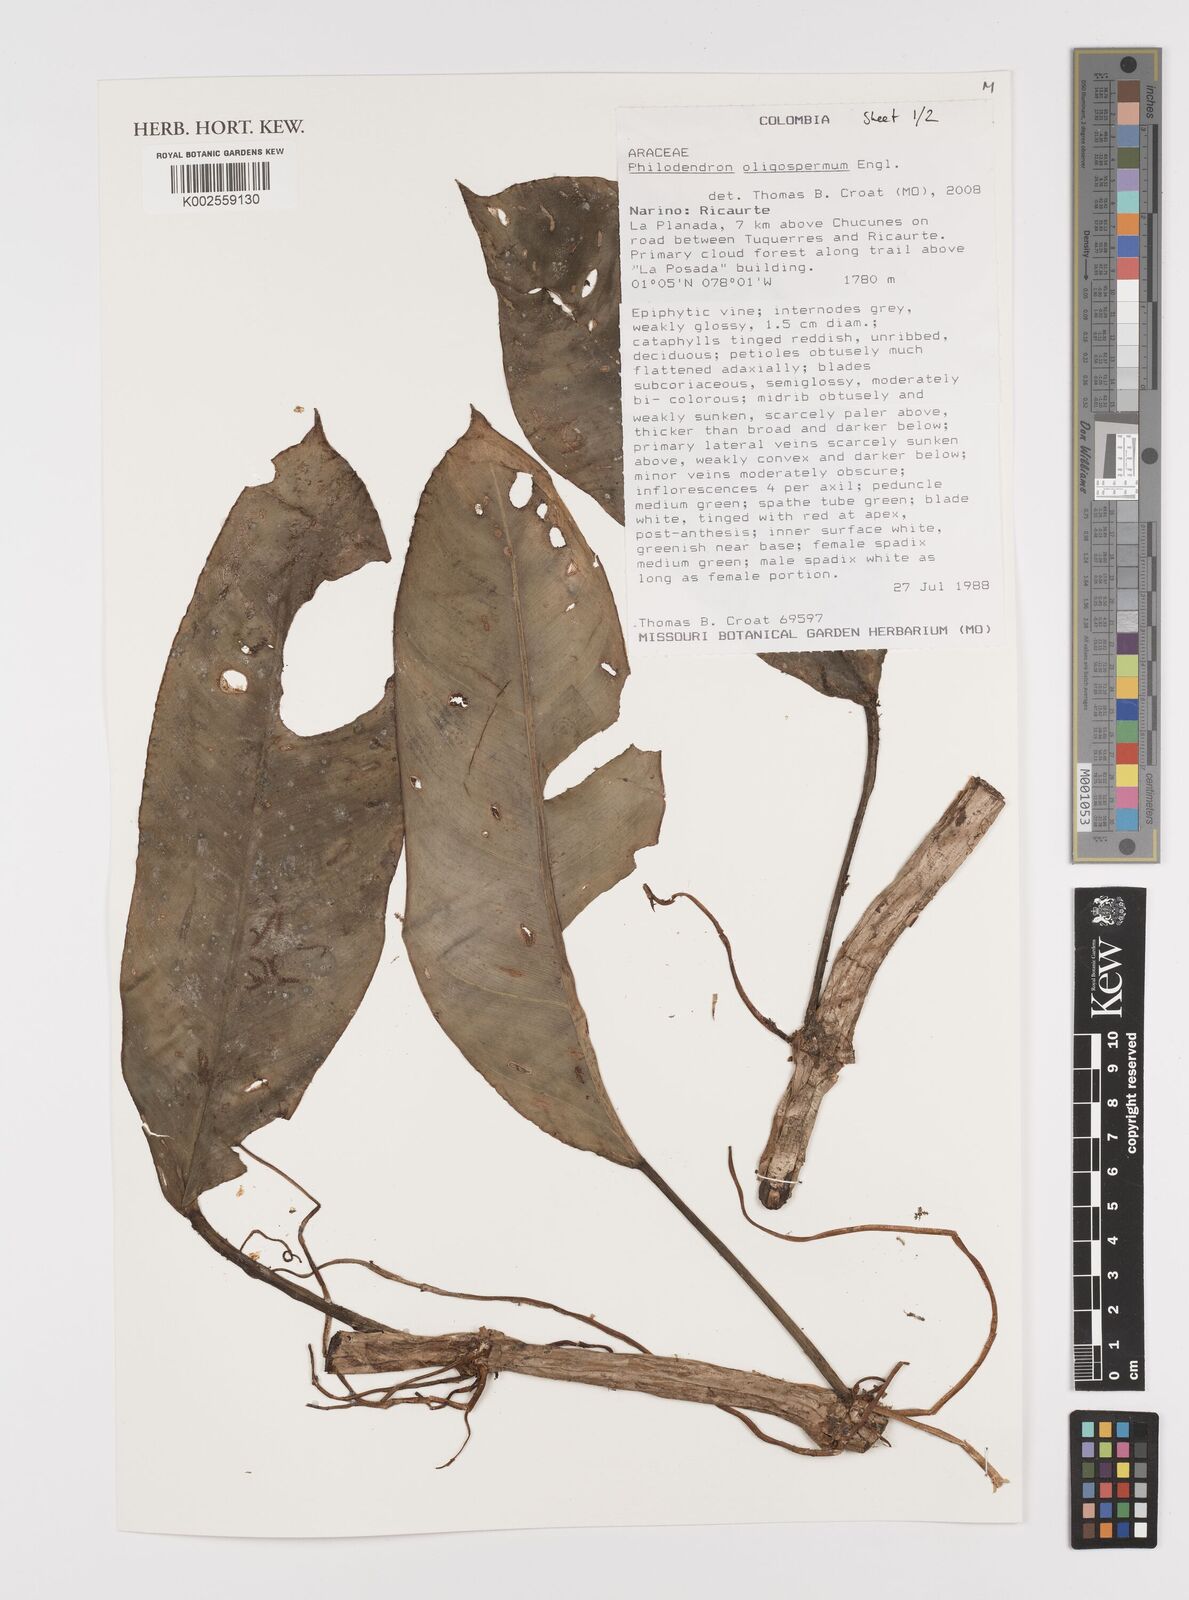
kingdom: Plantae
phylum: Tracheophyta
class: Liliopsida
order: Alismatales
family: Araceae
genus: Philodendron
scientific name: Philodendron oligospermum
